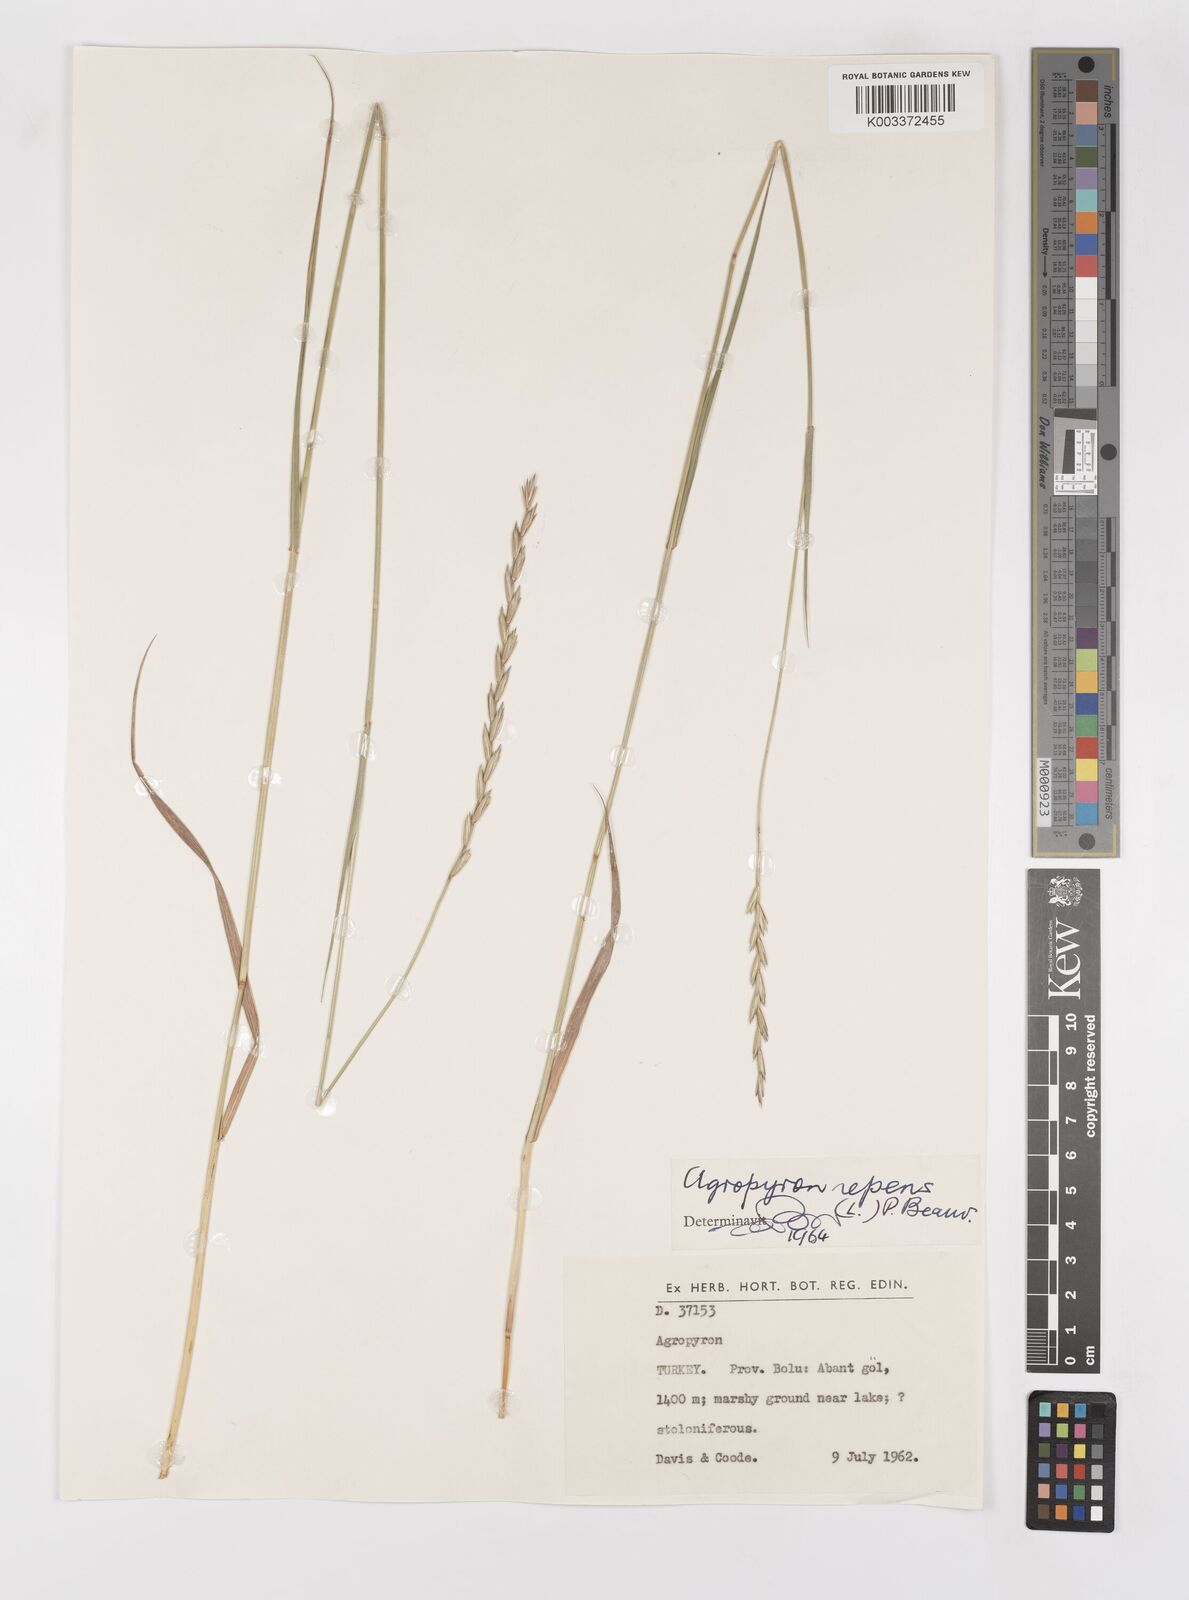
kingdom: Plantae
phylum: Tracheophyta
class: Liliopsida
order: Poales
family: Poaceae
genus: Elymus
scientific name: Elymus repens
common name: Quackgrass
